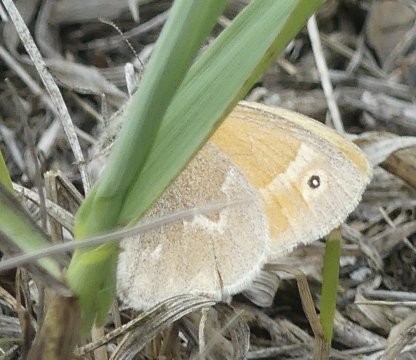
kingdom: Animalia
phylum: Arthropoda
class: Insecta
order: Lepidoptera
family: Nymphalidae
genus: Coenonympha
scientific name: Coenonympha tullia
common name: Large Heath
